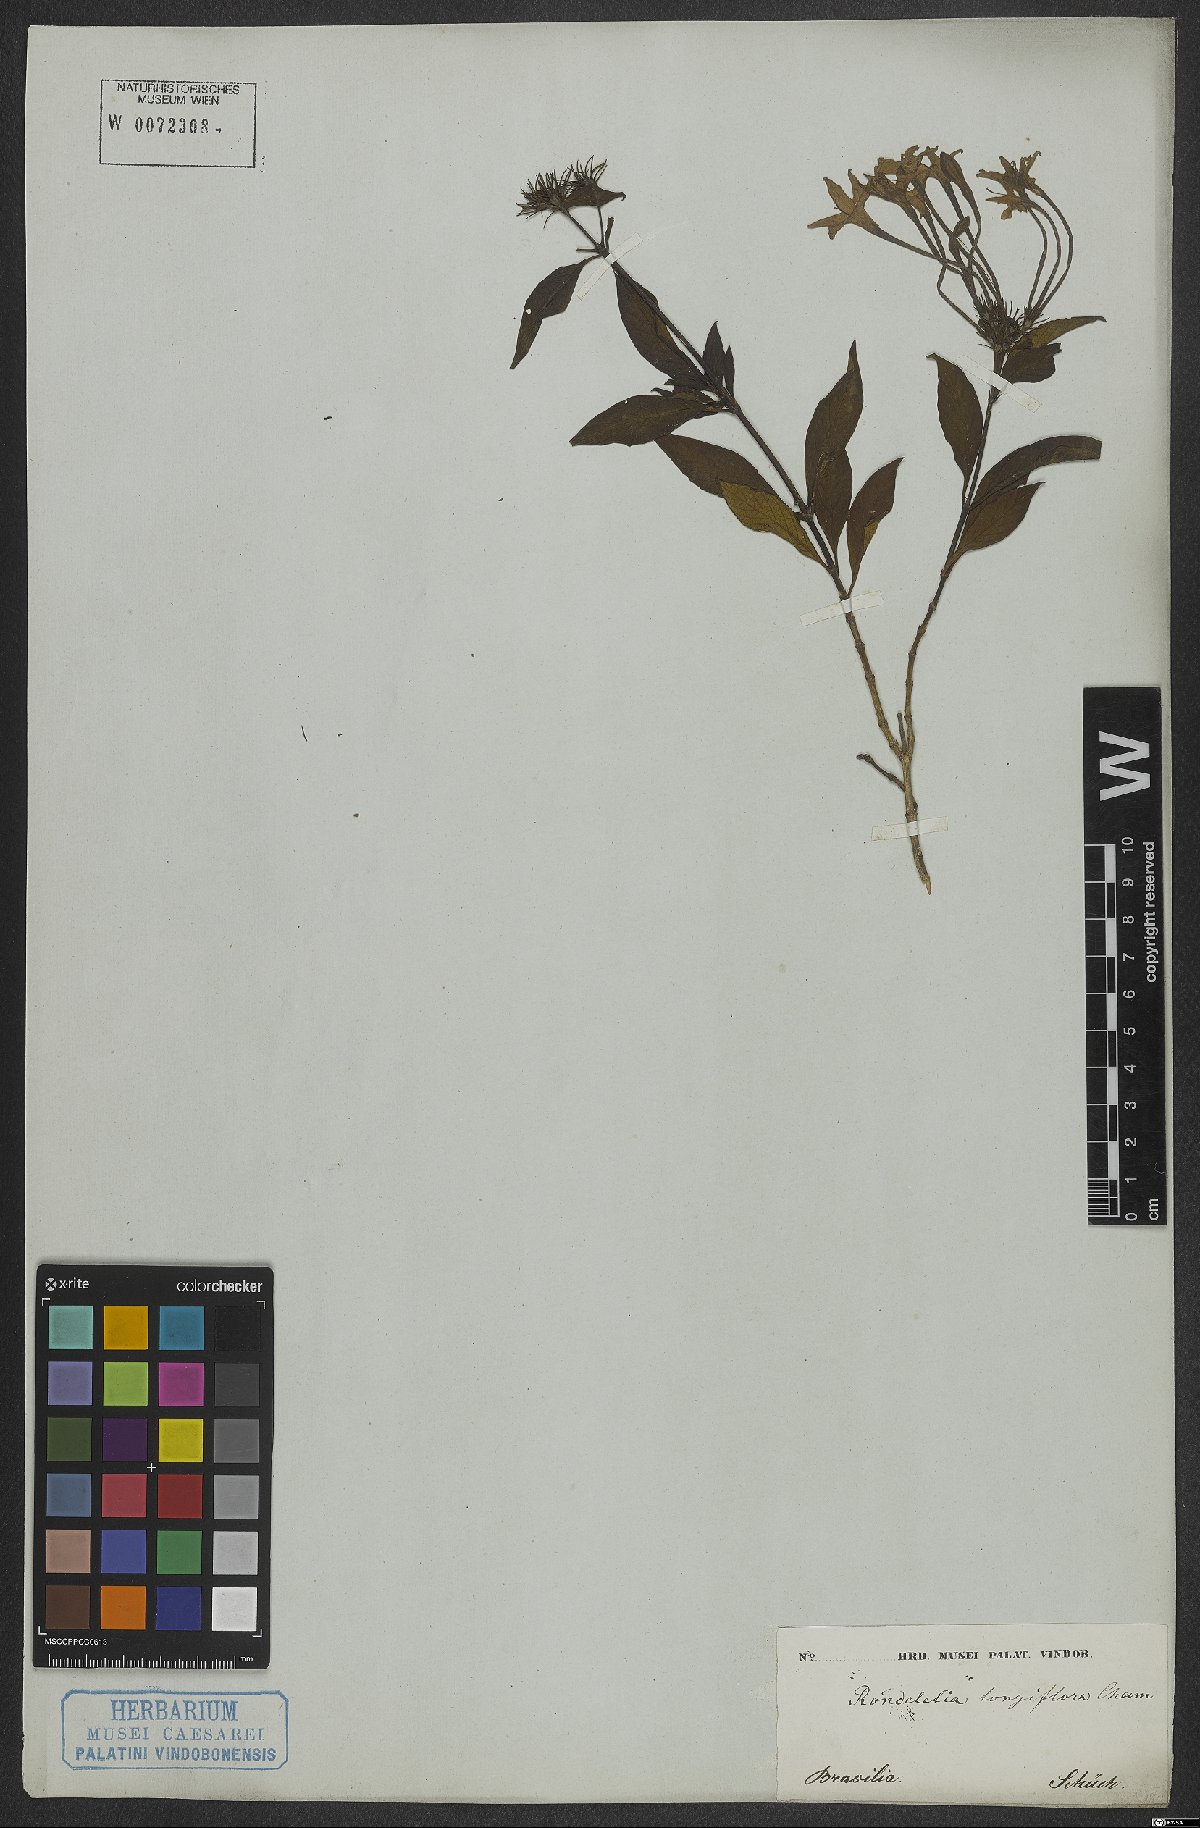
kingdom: Plantae
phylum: Tracheophyta
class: Magnoliopsida
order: Gentianales
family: Rubiaceae
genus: Hindsia
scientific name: Hindsia longiflora
